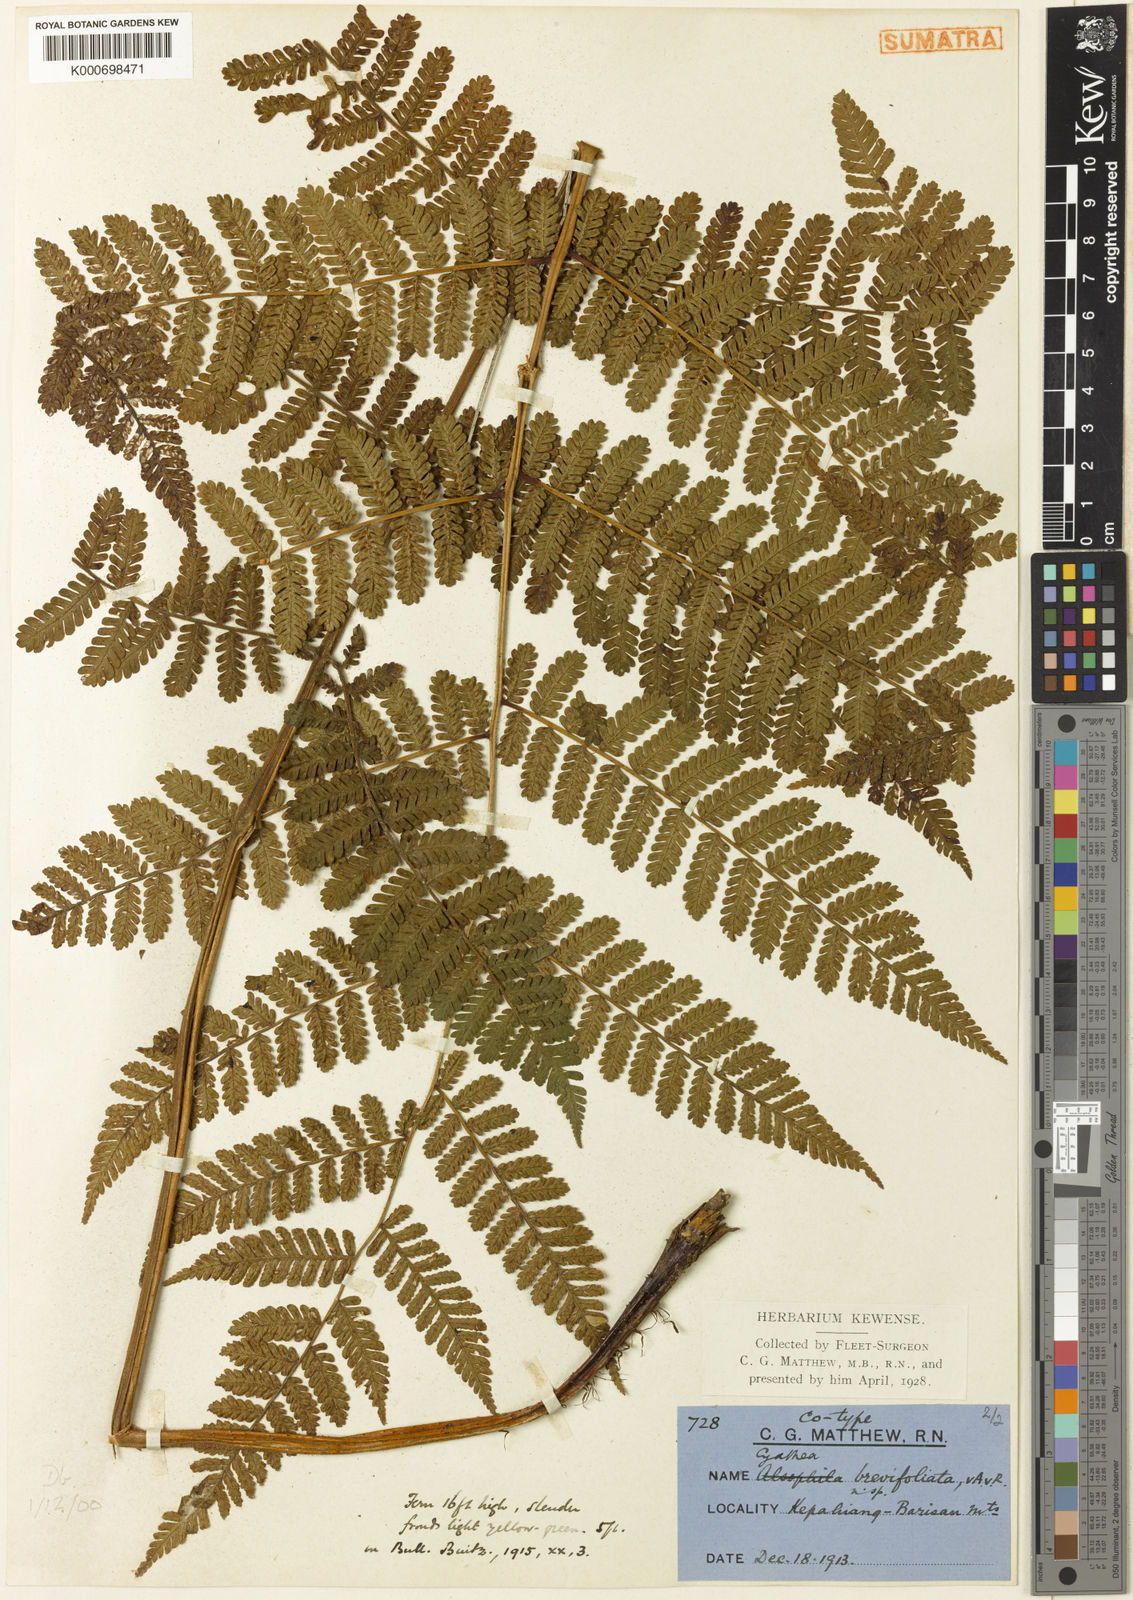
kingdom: Plantae
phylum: Tracheophyta
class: Polypodiopsida
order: Cyatheales
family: Cyatheaceae
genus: Alsophila
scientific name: Alsophila crenulata
